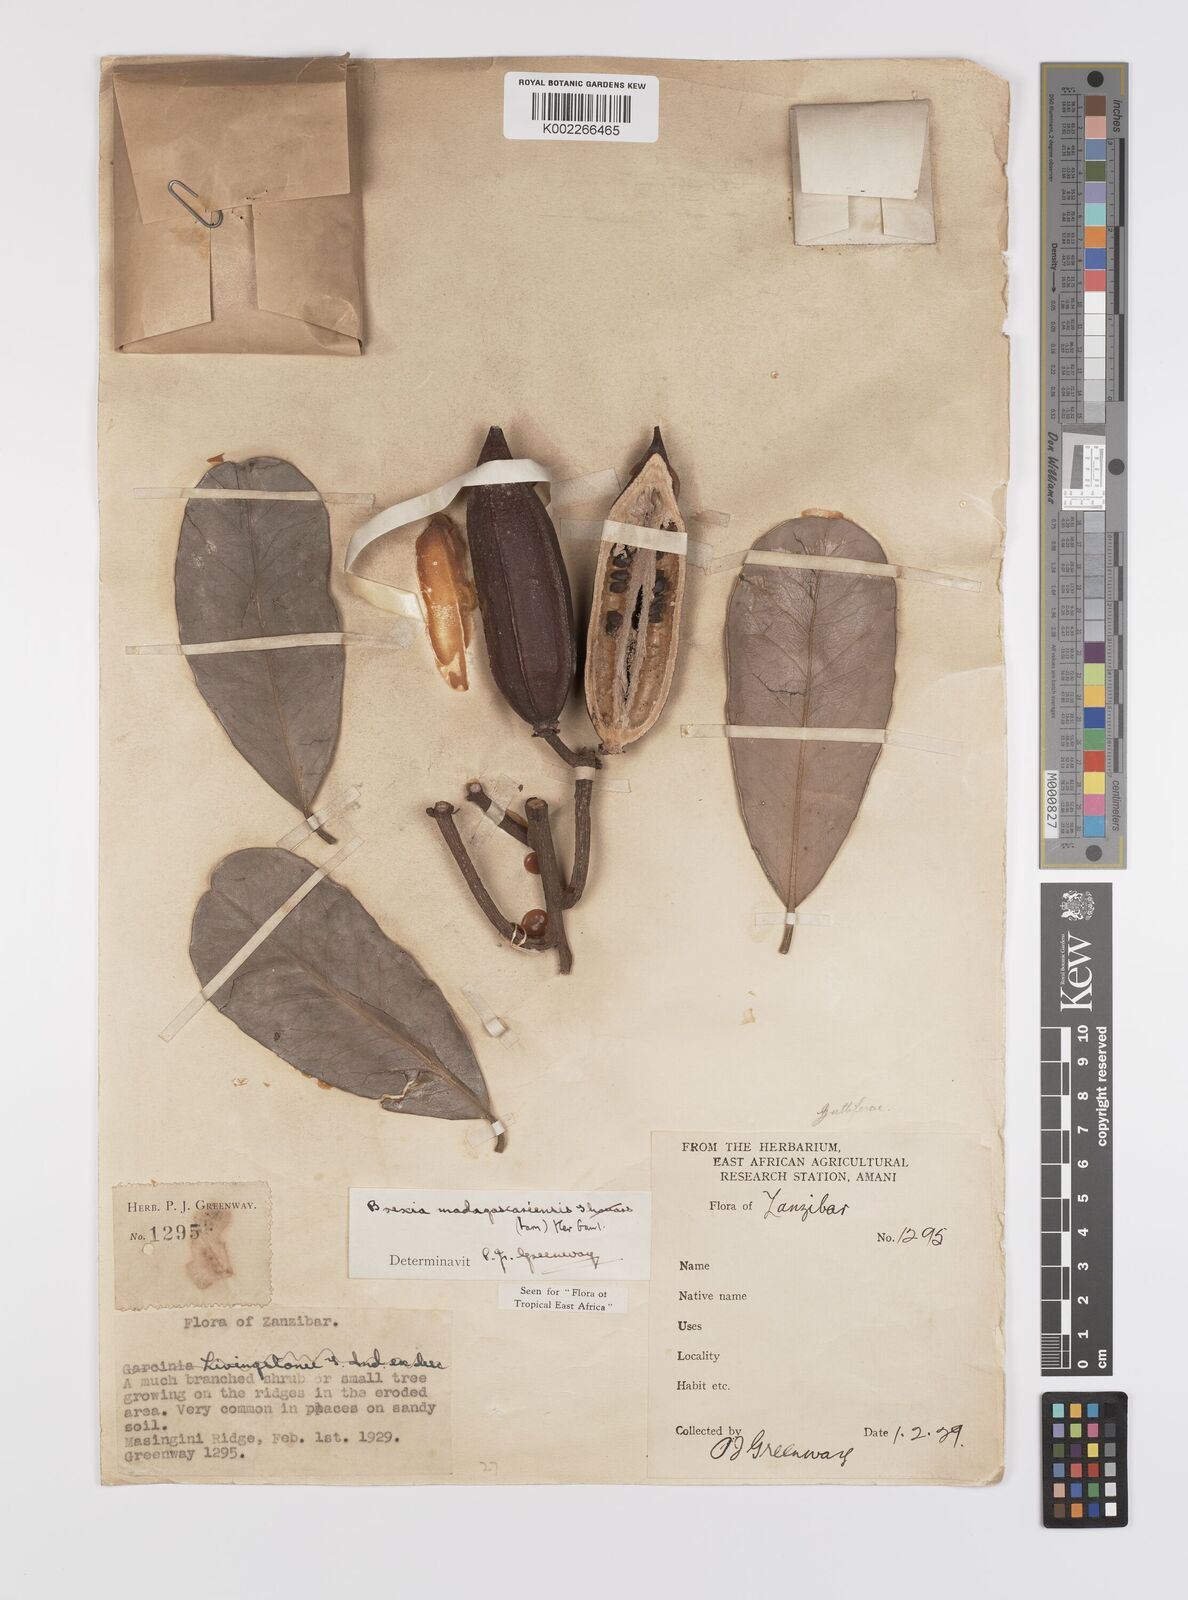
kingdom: Plantae
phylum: Tracheophyta
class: Magnoliopsida
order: Celastrales
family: Celastraceae
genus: Brexia
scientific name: Brexia madagascariensis
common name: Brexia
